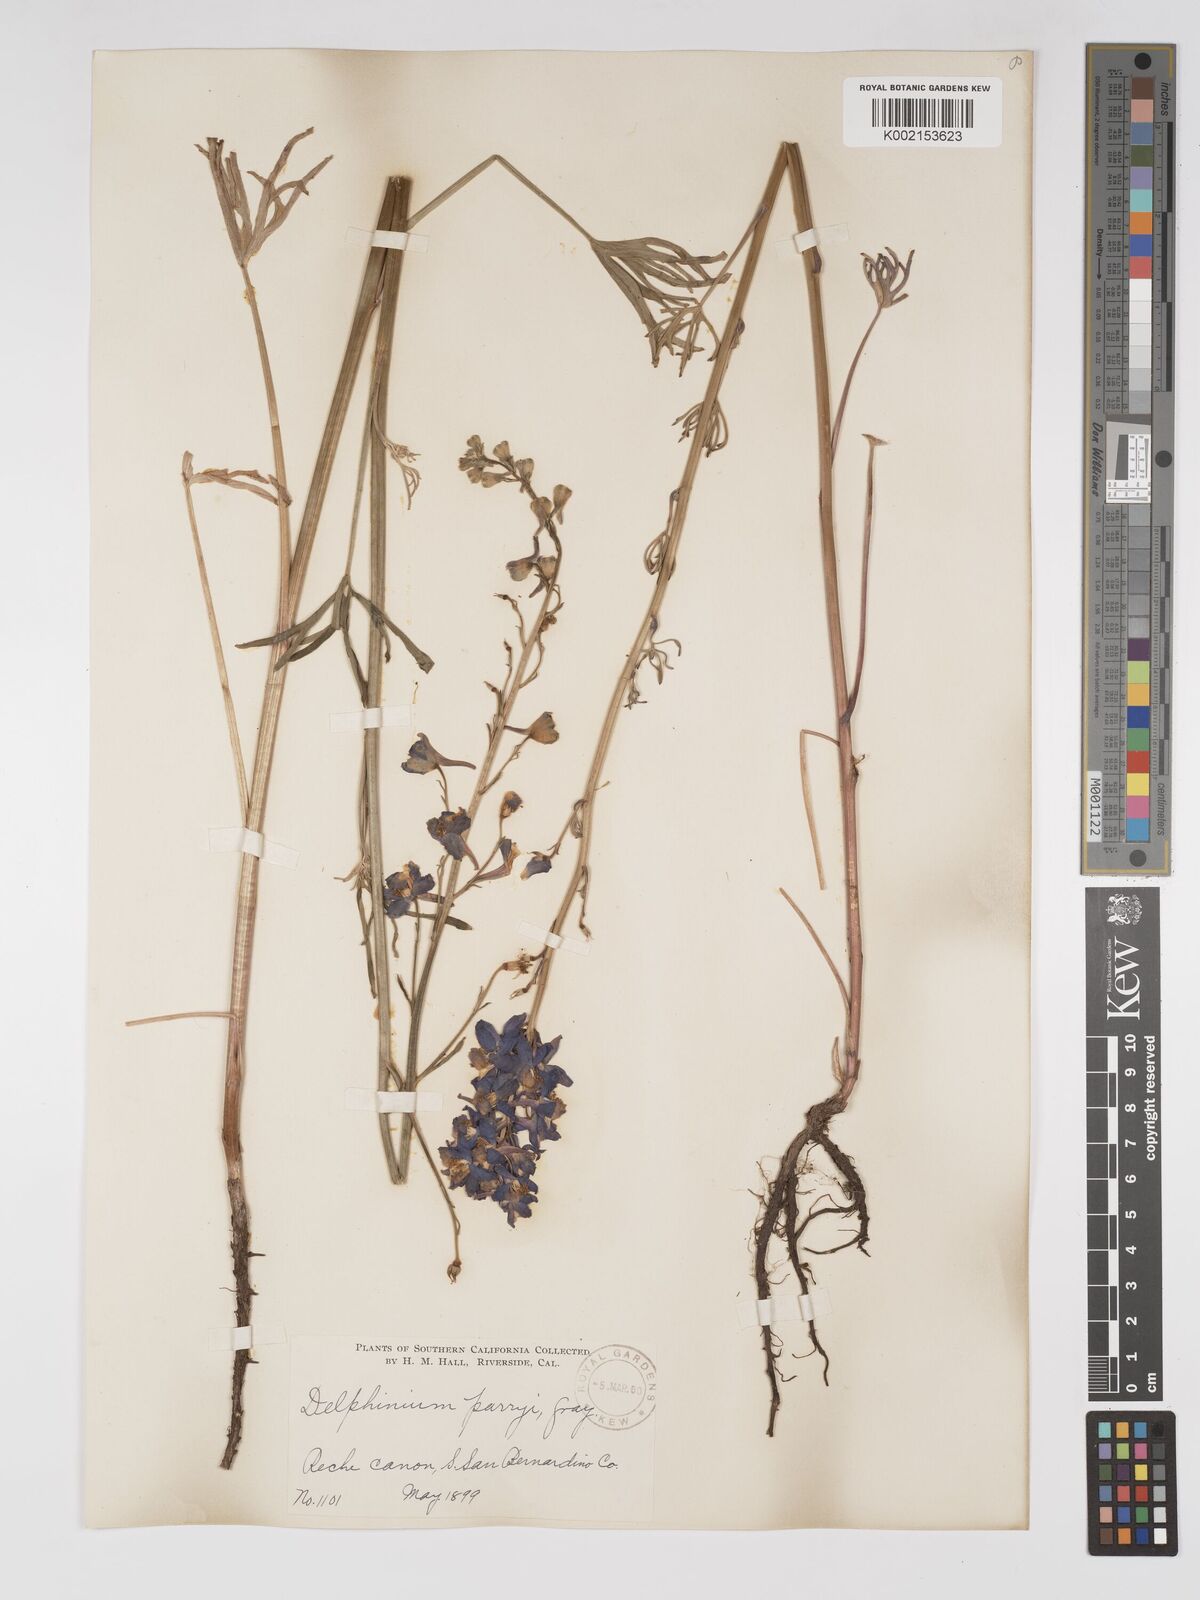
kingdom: Plantae
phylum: Tracheophyta
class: Magnoliopsida
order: Ranunculales
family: Ranunculaceae
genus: Delphinium
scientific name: Delphinium parryi
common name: Parry's larkspur
